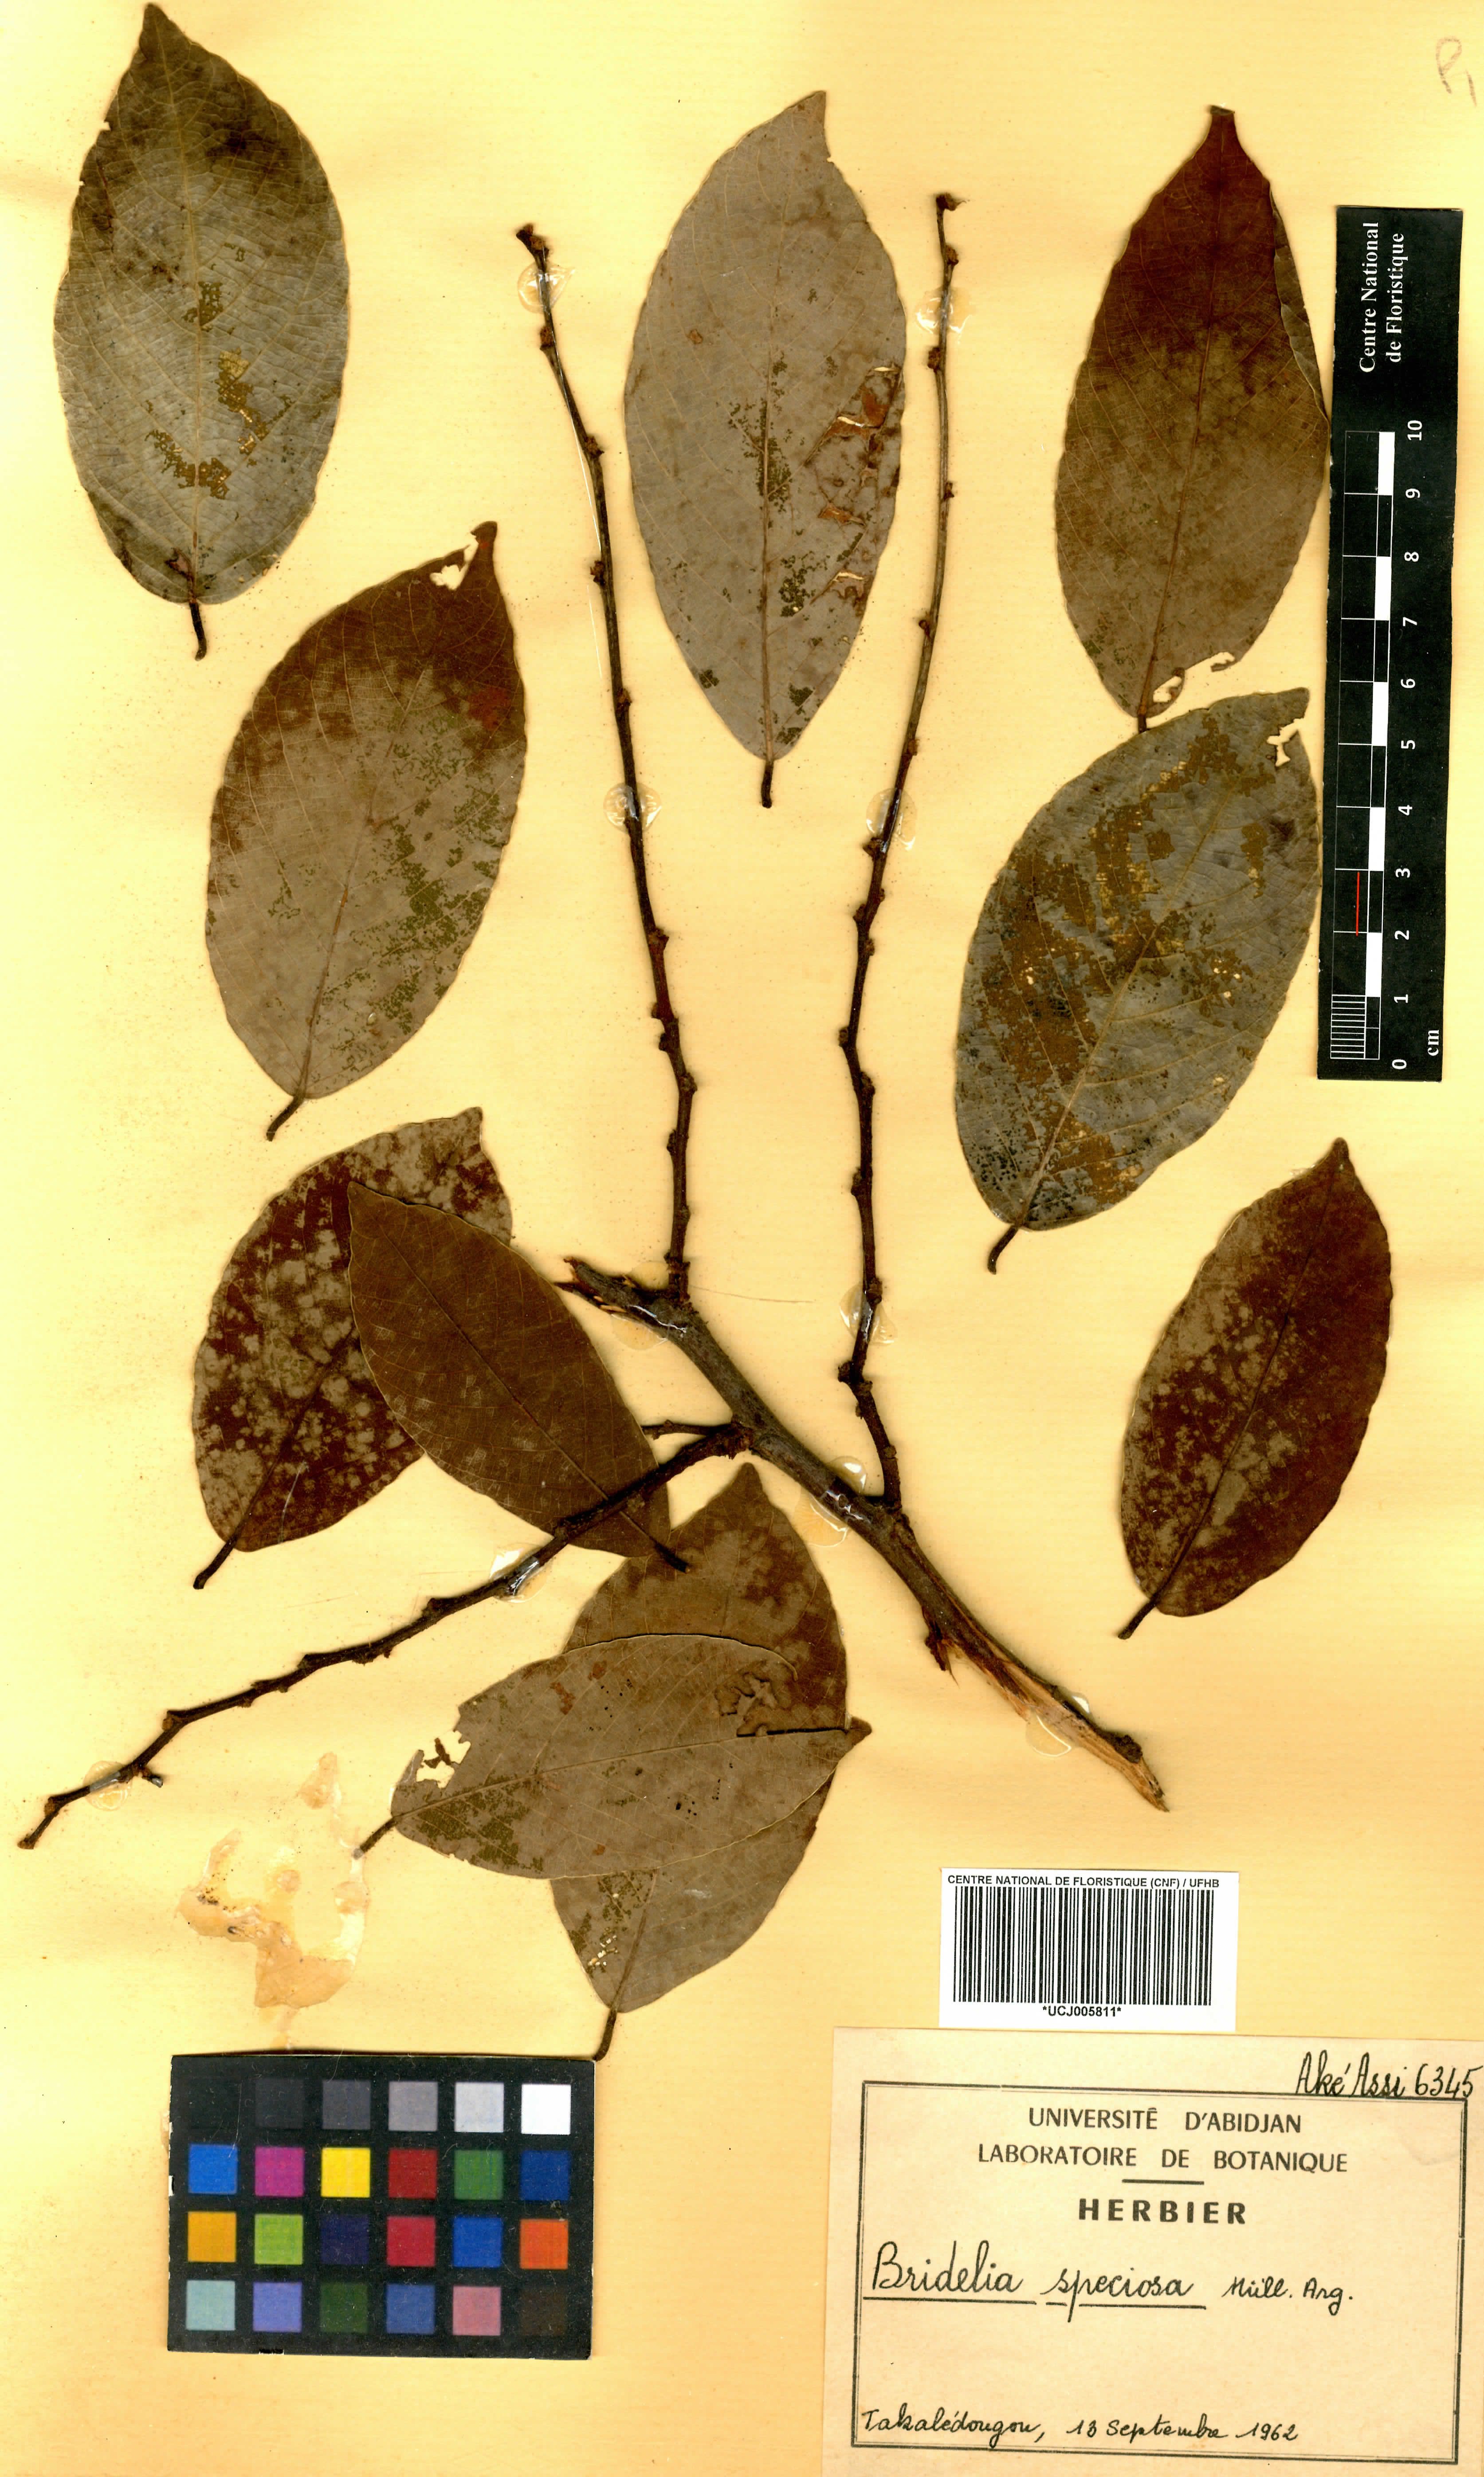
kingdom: Plantae
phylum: Tracheophyta
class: Magnoliopsida
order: Malpighiales
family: Phyllanthaceae
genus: Bridelia
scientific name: Bridelia speciosa
